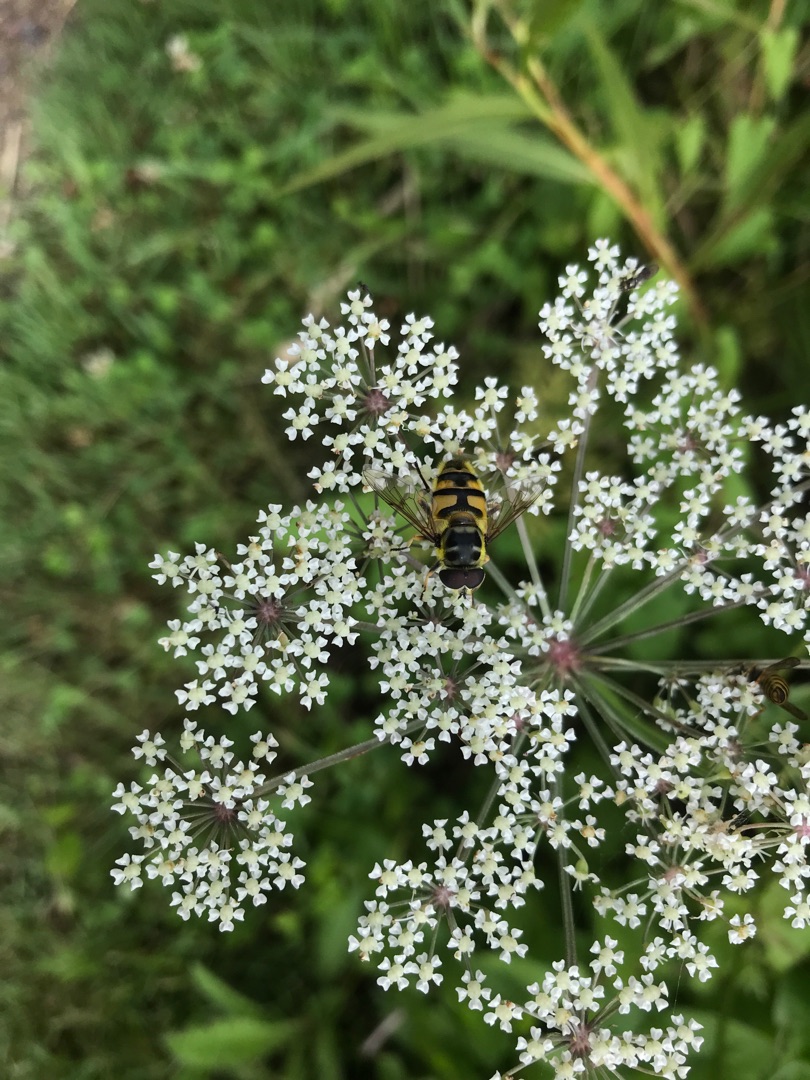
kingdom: Animalia
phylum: Arthropoda
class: Insecta
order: Diptera
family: Syrphidae
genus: Myathropa
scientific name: Myathropa florea
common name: Dødningehoved-svirreflue
